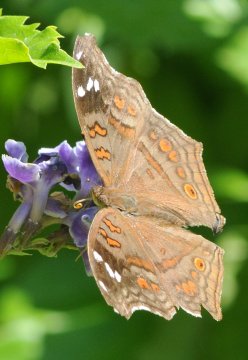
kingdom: Animalia
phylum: Arthropoda
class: Insecta
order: Lepidoptera
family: Nymphalidae
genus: Junonia
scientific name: Junonia natalica
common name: Natal Pansy
